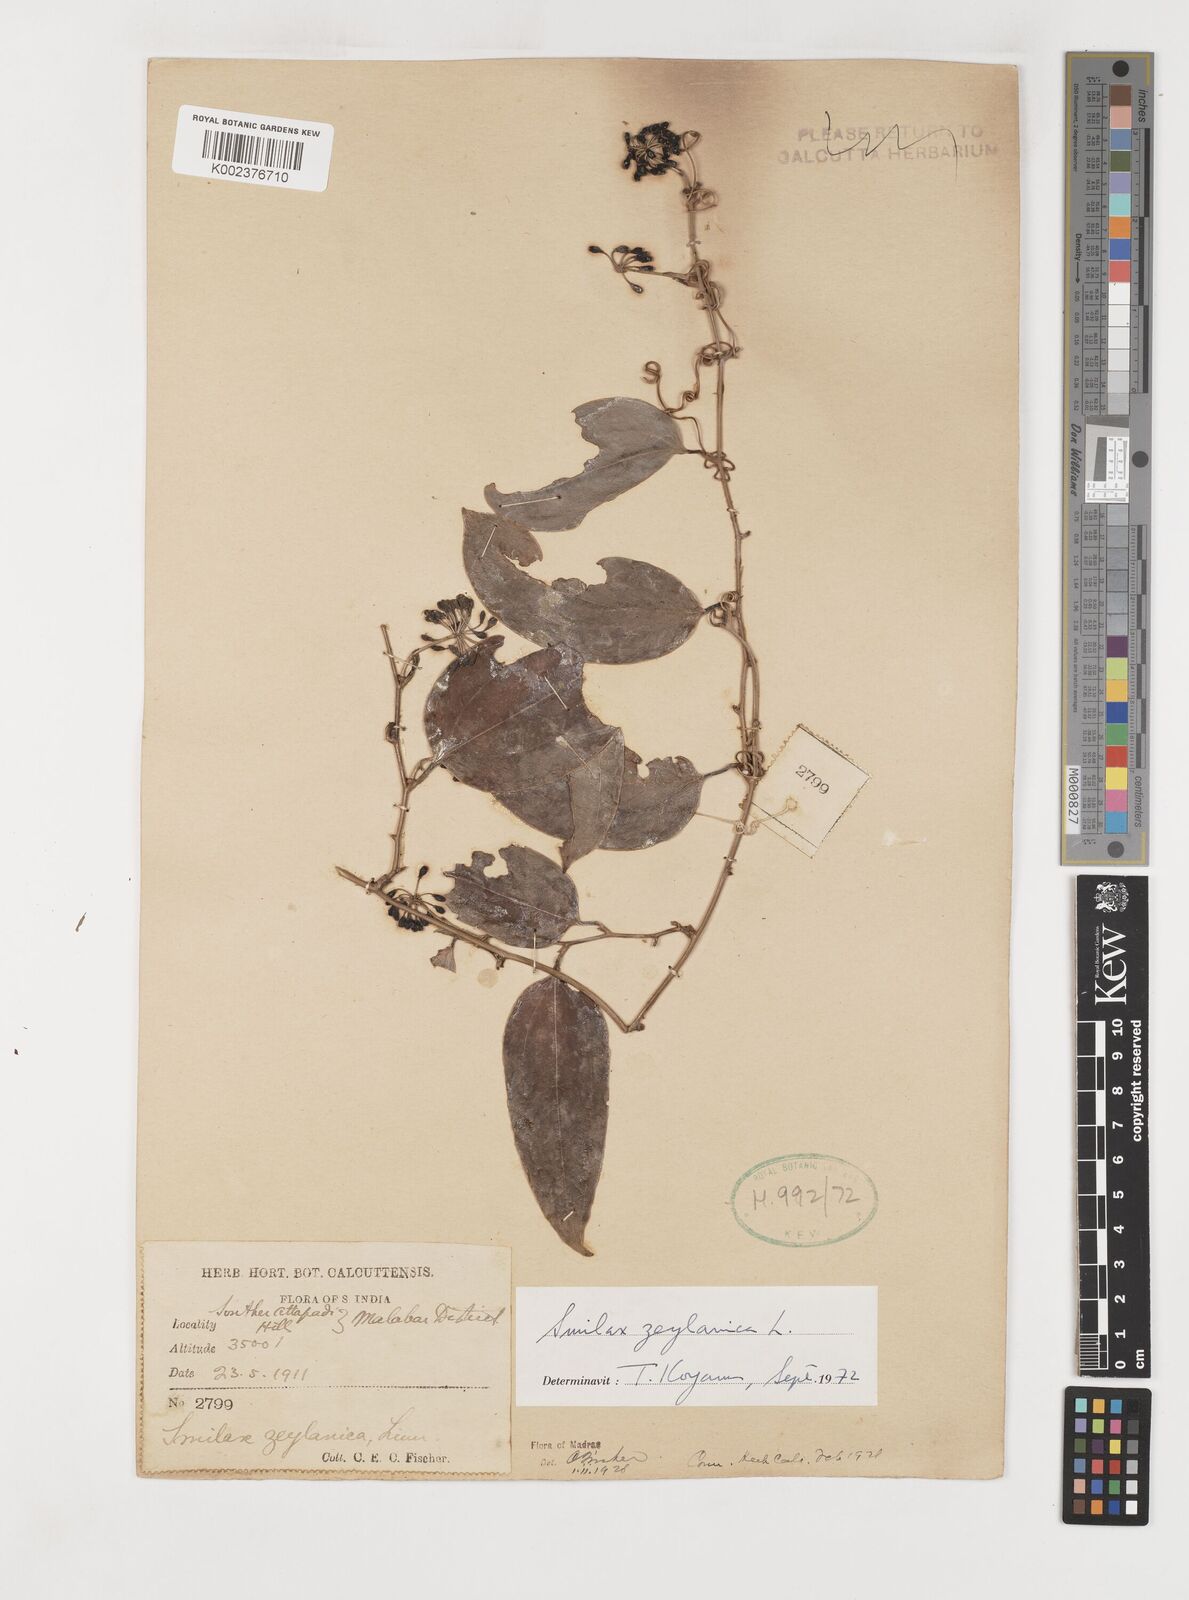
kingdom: Plantae
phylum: Tracheophyta
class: Liliopsida
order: Liliales
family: Smilacaceae
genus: Smilax
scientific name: Smilax zeylanica
